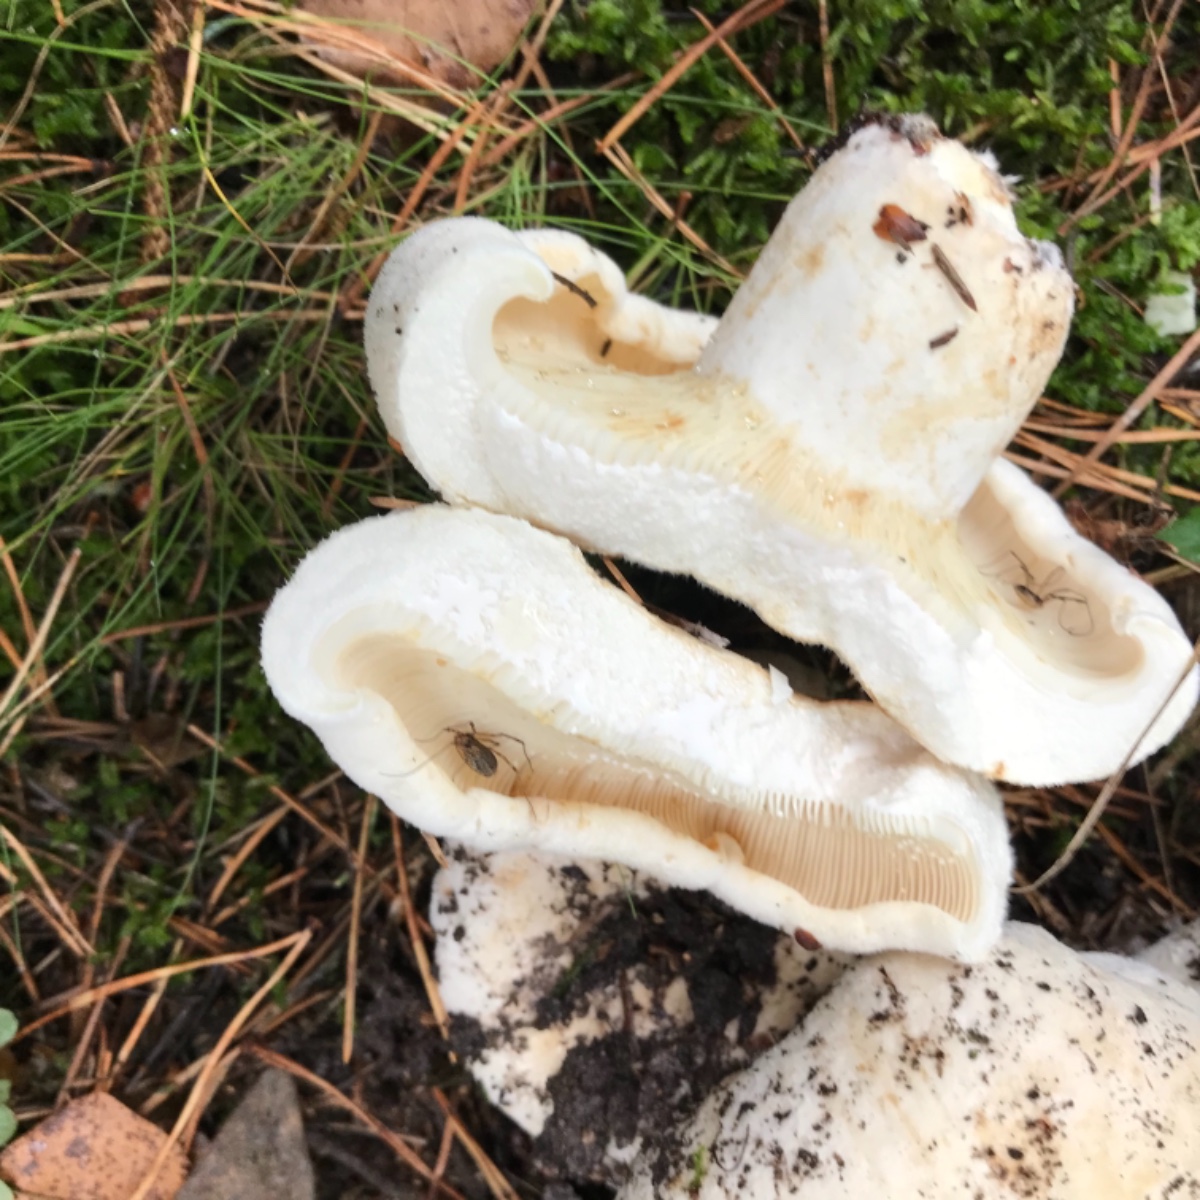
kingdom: Fungi
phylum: Basidiomycota
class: Agaricomycetes
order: Russulales
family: Russulaceae
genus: Lactifluus
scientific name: Lactifluus vellereus
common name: hvidfiltet mælkehat
